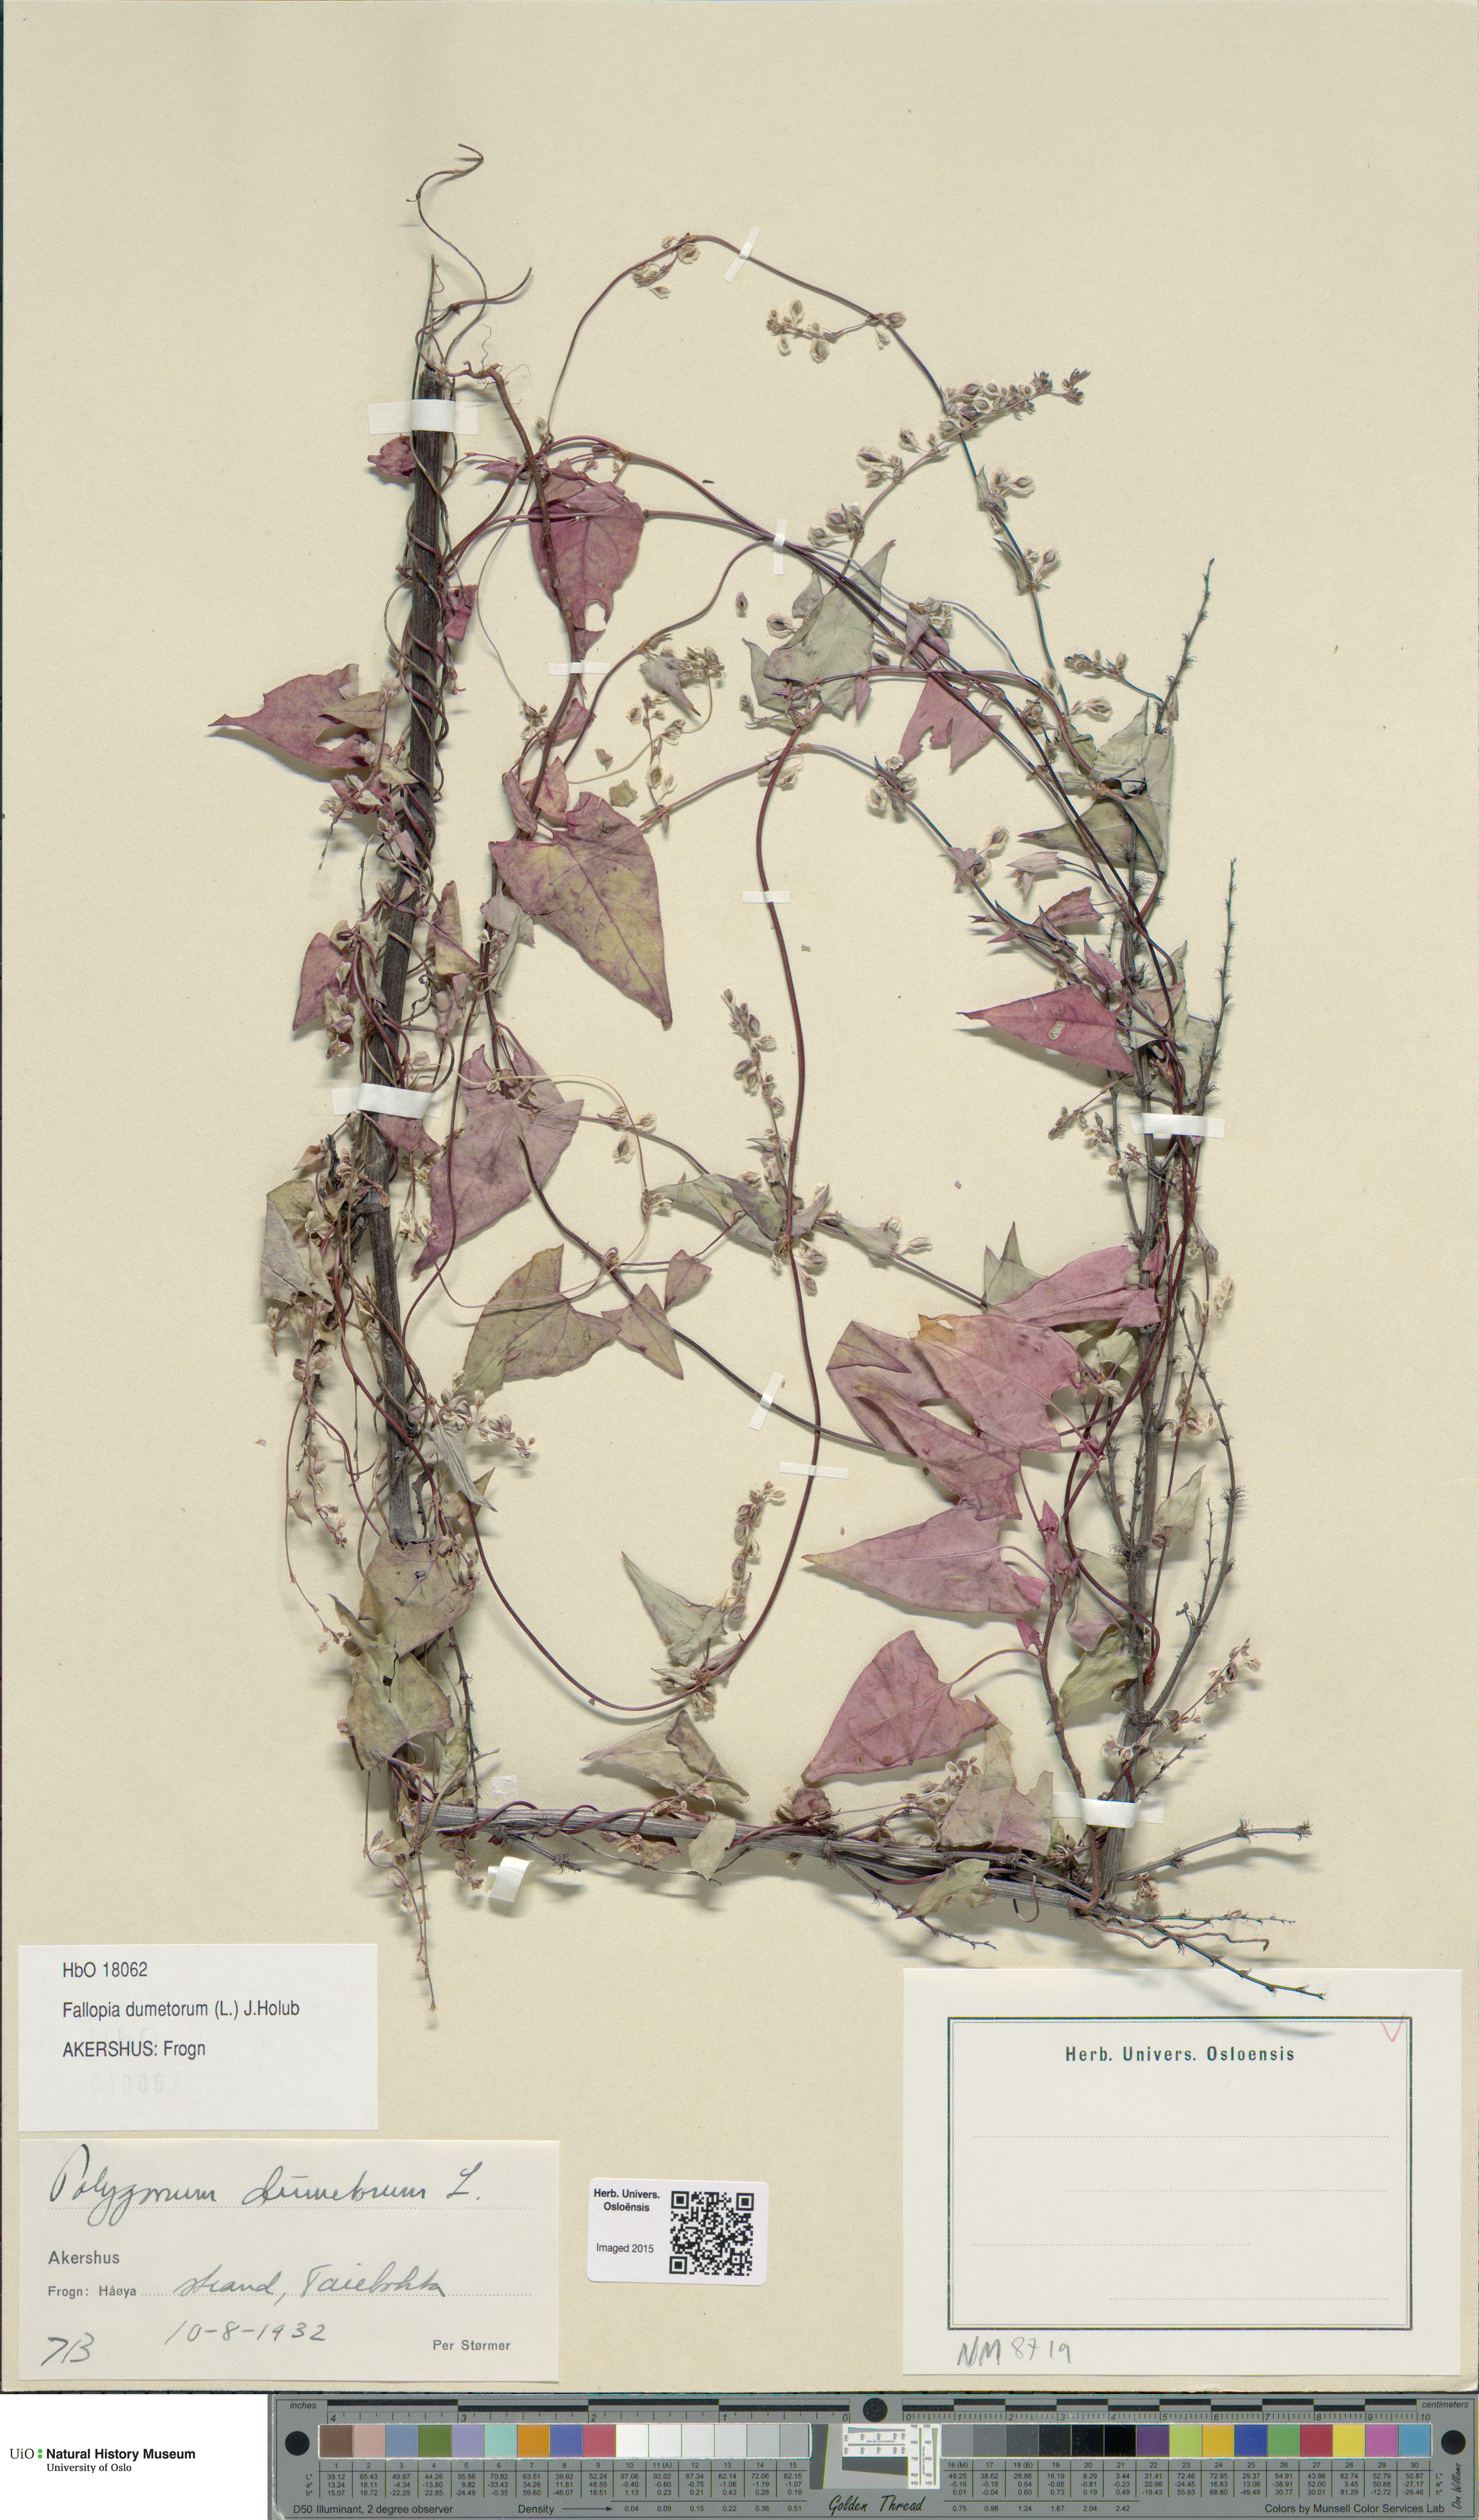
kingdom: Plantae
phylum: Tracheophyta
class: Magnoliopsida
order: Caryophyllales
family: Polygonaceae
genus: Fallopia
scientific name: Fallopia dumetorum
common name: Copse-bindweed
